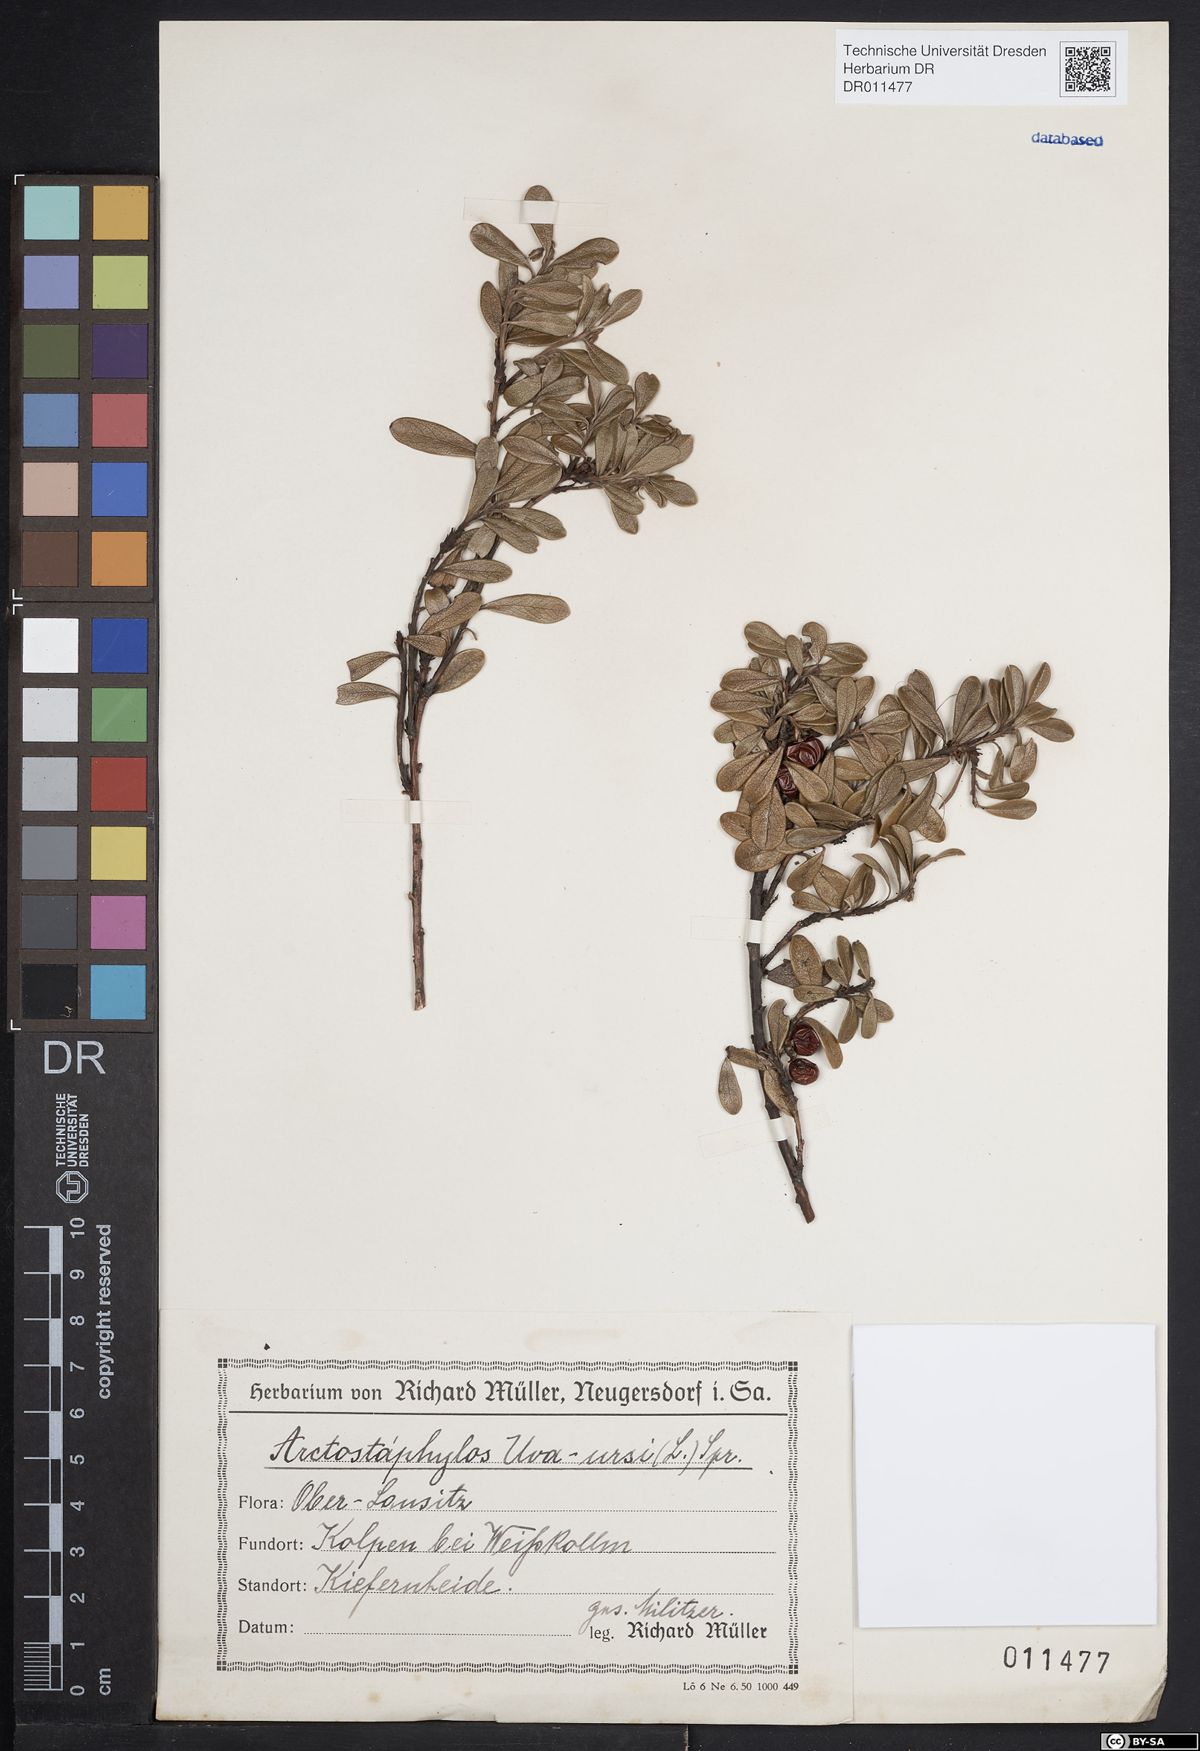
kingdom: Plantae
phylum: Tracheophyta
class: Magnoliopsida
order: Ericales
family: Ericaceae
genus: Arctostaphylos
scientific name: Arctostaphylos uva-ursi
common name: Bearberry
